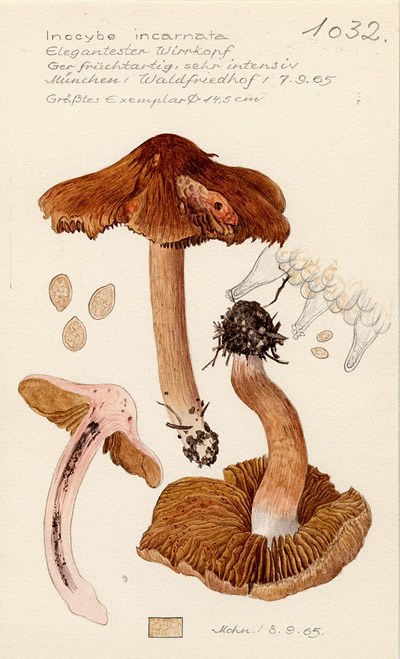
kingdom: Fungi
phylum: Basidiomycota
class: Agaricomycetes
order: Agaricales
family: Inocybaceae
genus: Inocybe
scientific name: Inocybe fraudans
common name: Pear fibrecap
